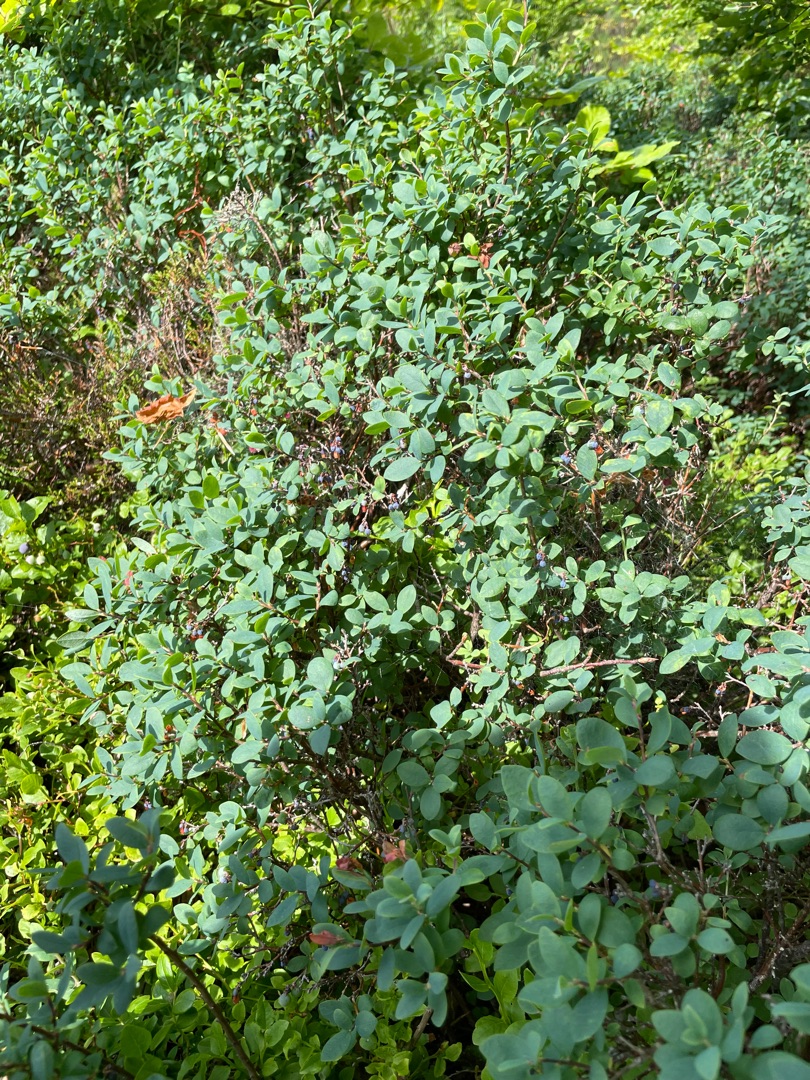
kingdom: Plantae
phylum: Tracheophyta
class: Magnoliopsida
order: Ericales
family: Ericaceae
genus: Vaccinium
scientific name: Vaccinium uliginosum
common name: Mose-bølle
